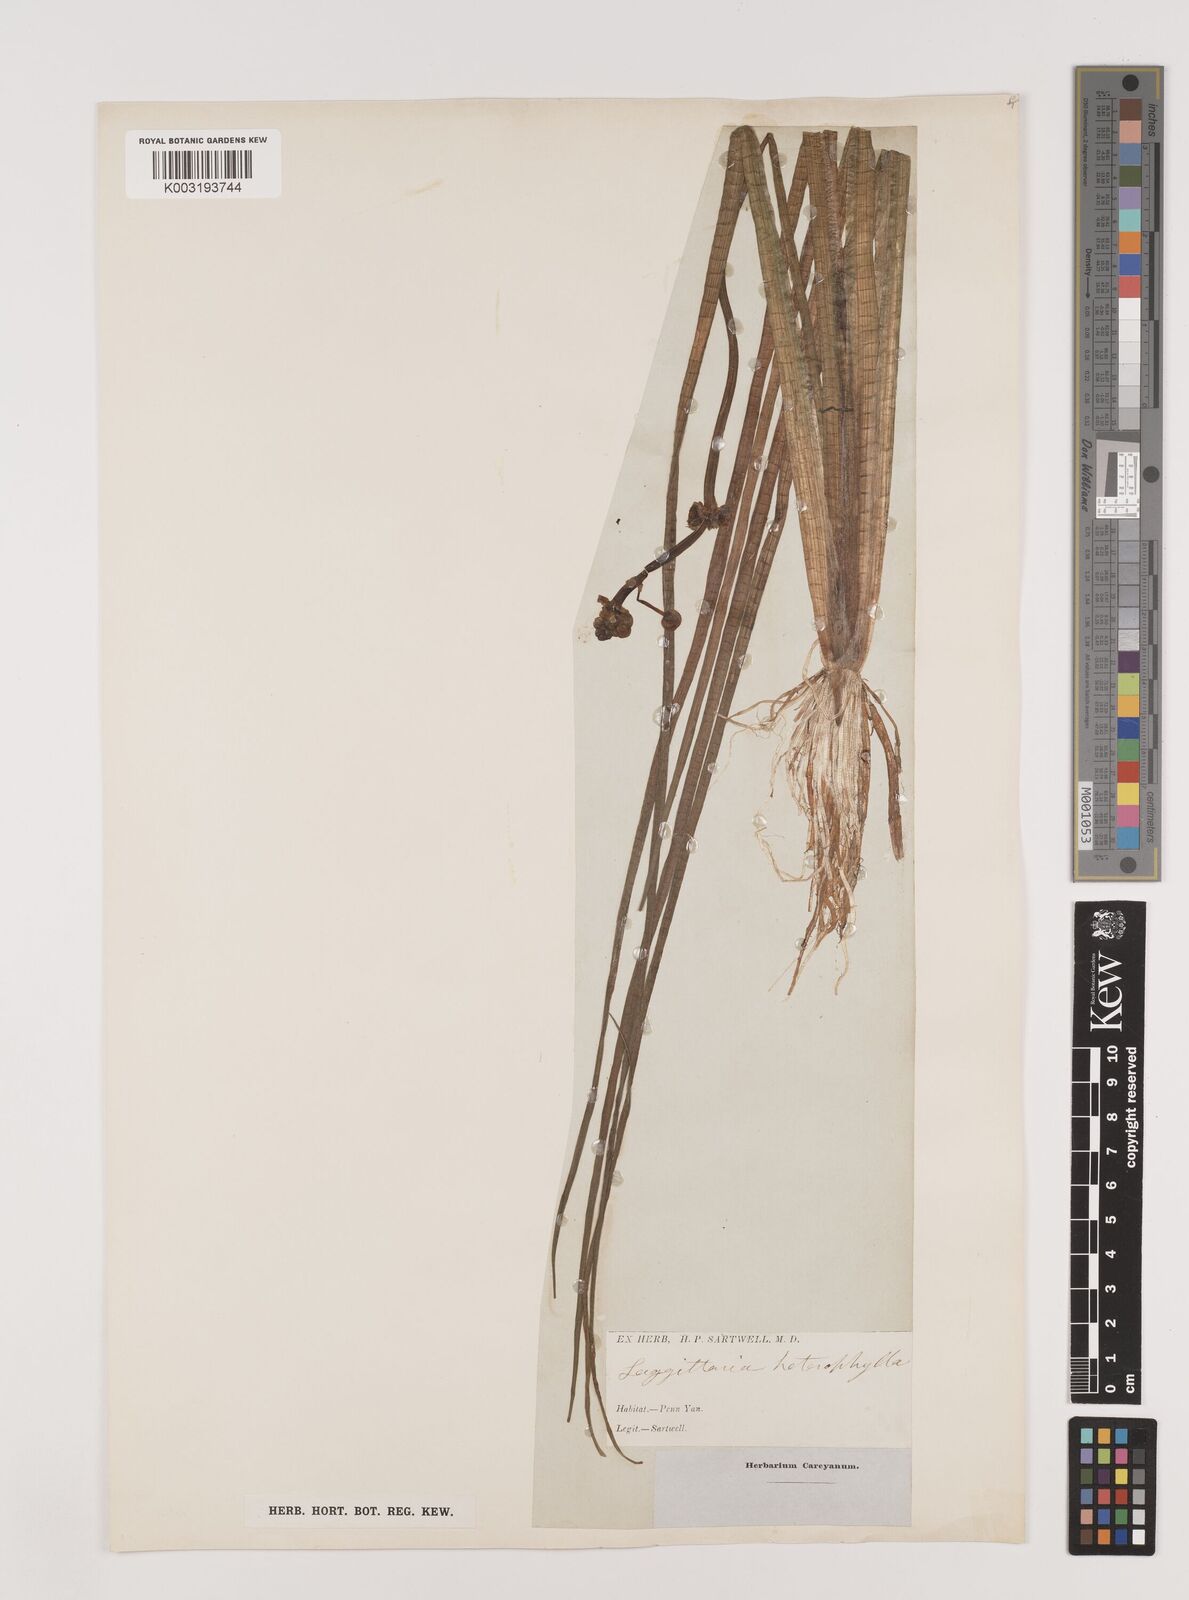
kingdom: Plantae
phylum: Tracheophyta
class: Liliopsida
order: Alismatales
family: Alismataceae
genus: Sagittaria
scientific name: Sagittaria rigida
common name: Canadian arrowhead
